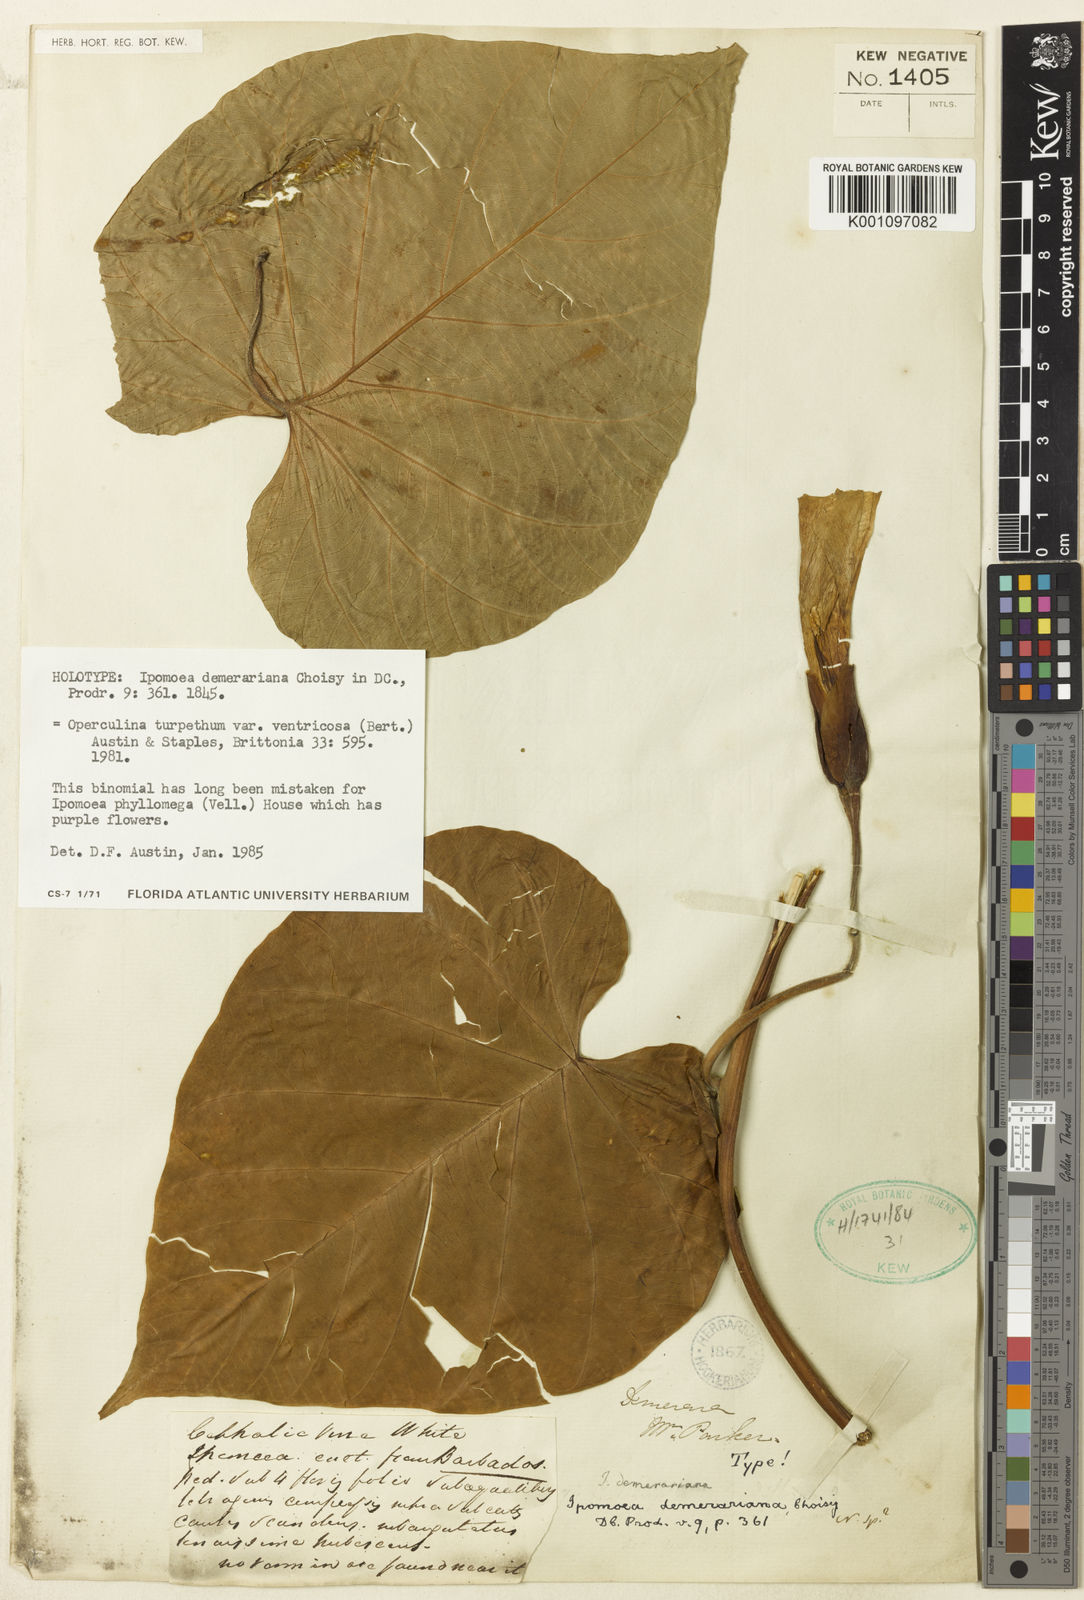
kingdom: Plantae
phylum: Tracheophyta
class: Magnoliopsida
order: Solanales
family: Convolvulaceae
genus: Operculina
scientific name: Operculina ventricosa
